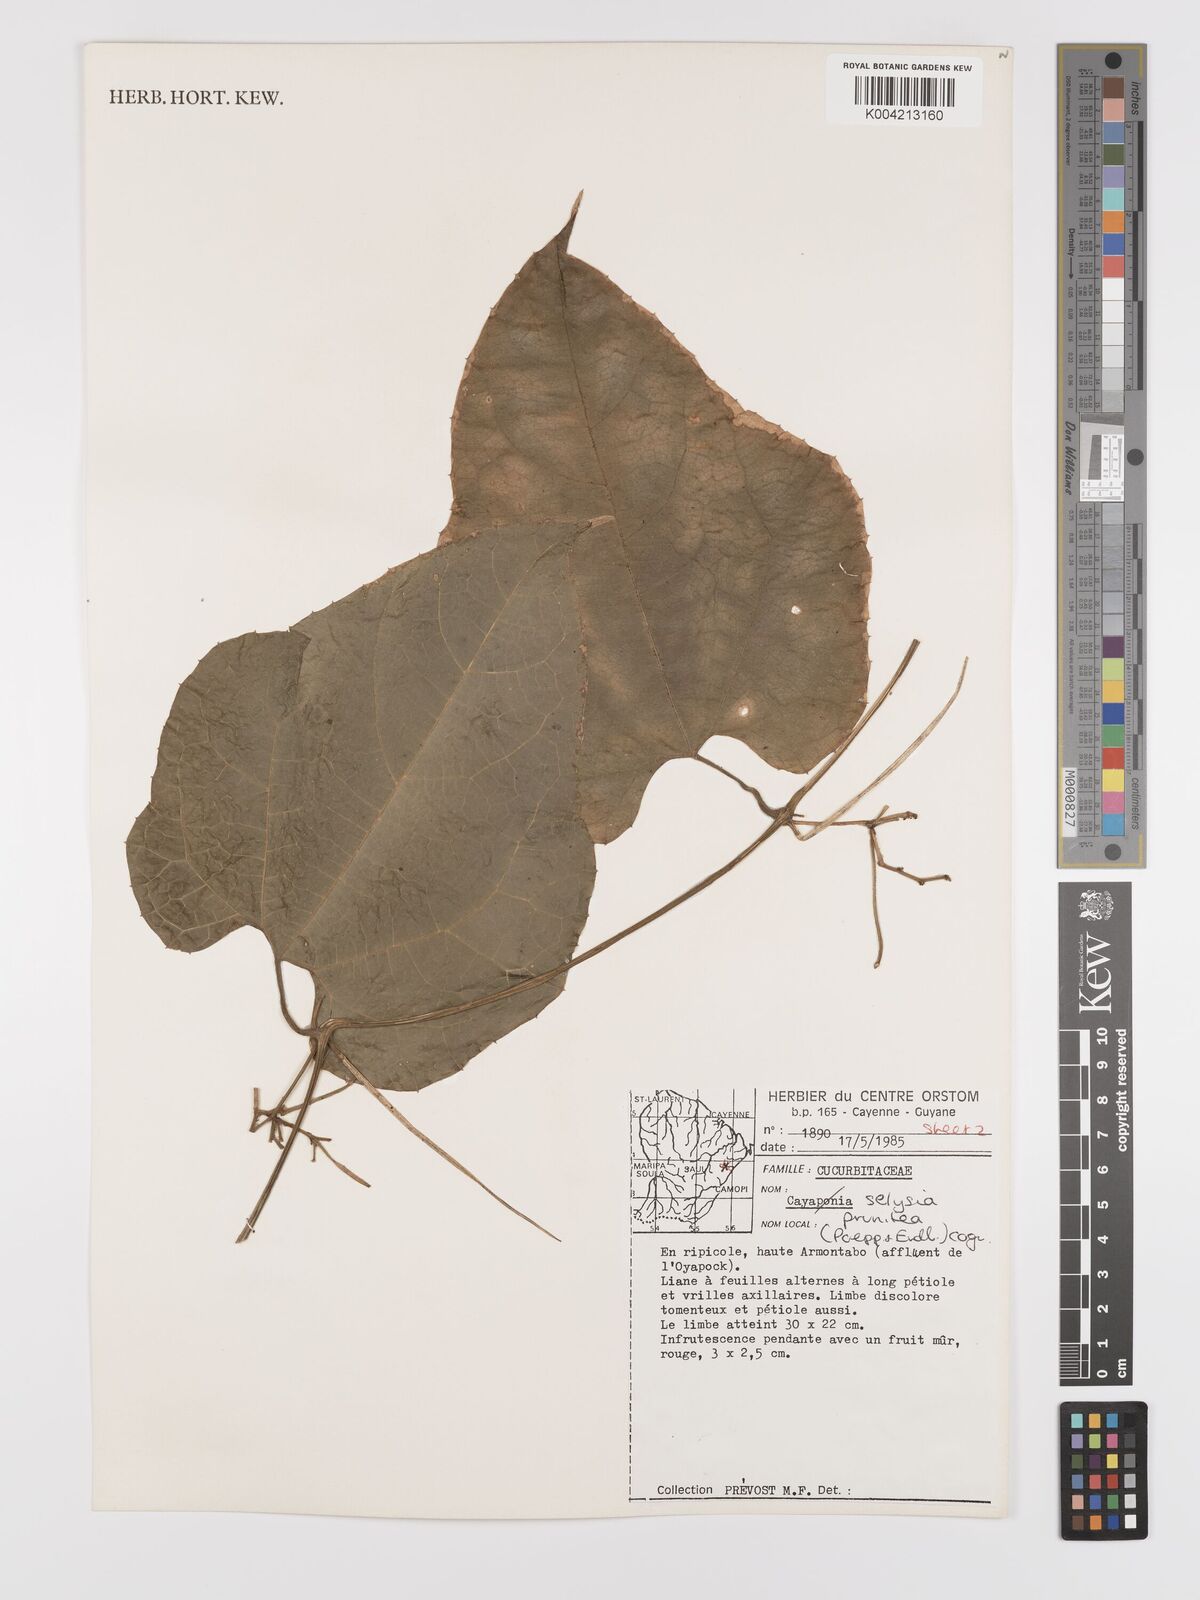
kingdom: Plantae
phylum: Tracheophyta
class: Magnoliopsida
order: Cucurbitales
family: Cucurbitaceae
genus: Cayaponia
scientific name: Cayaponia prunifera
